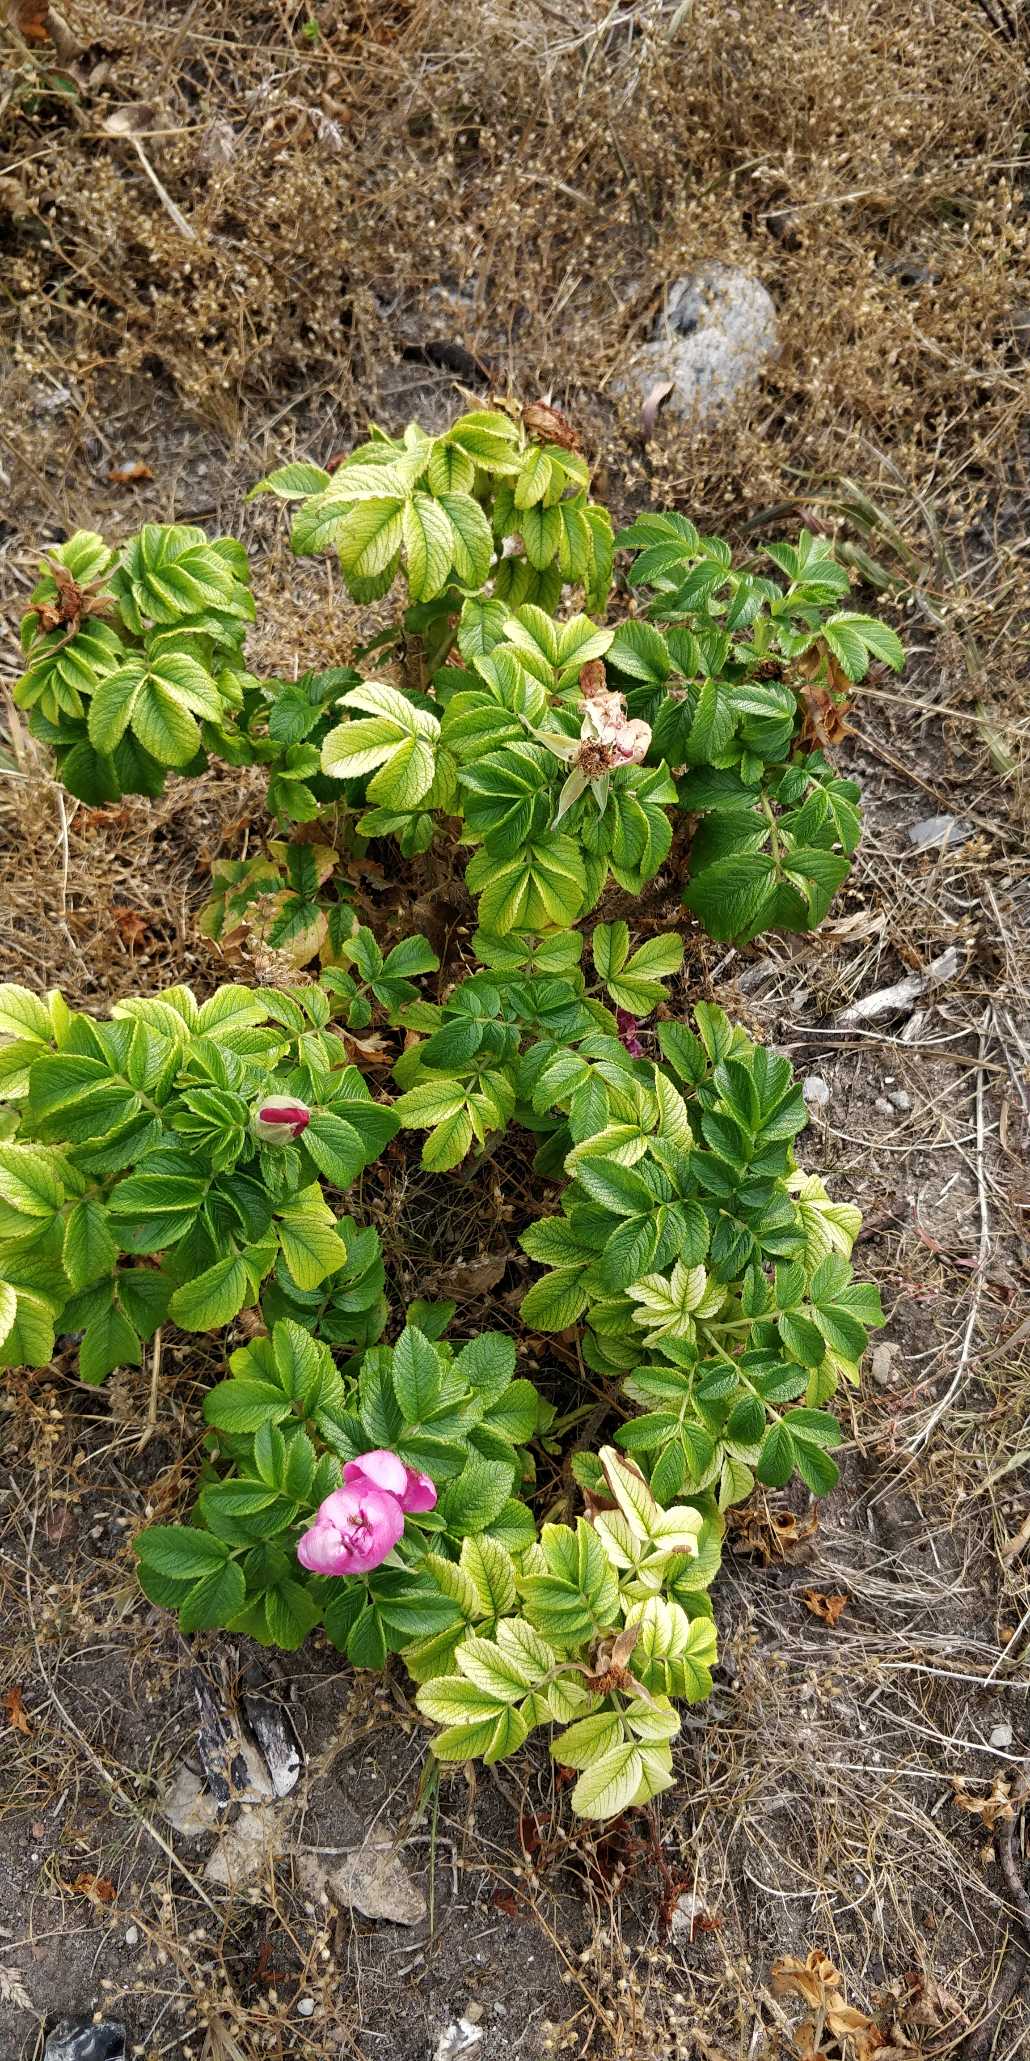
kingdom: Plantae
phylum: Tracheophyta
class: Magnoliopsida
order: Rosales
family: Rosaceae
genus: Rosa
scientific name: Rosa rugosa
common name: Rynket rose
